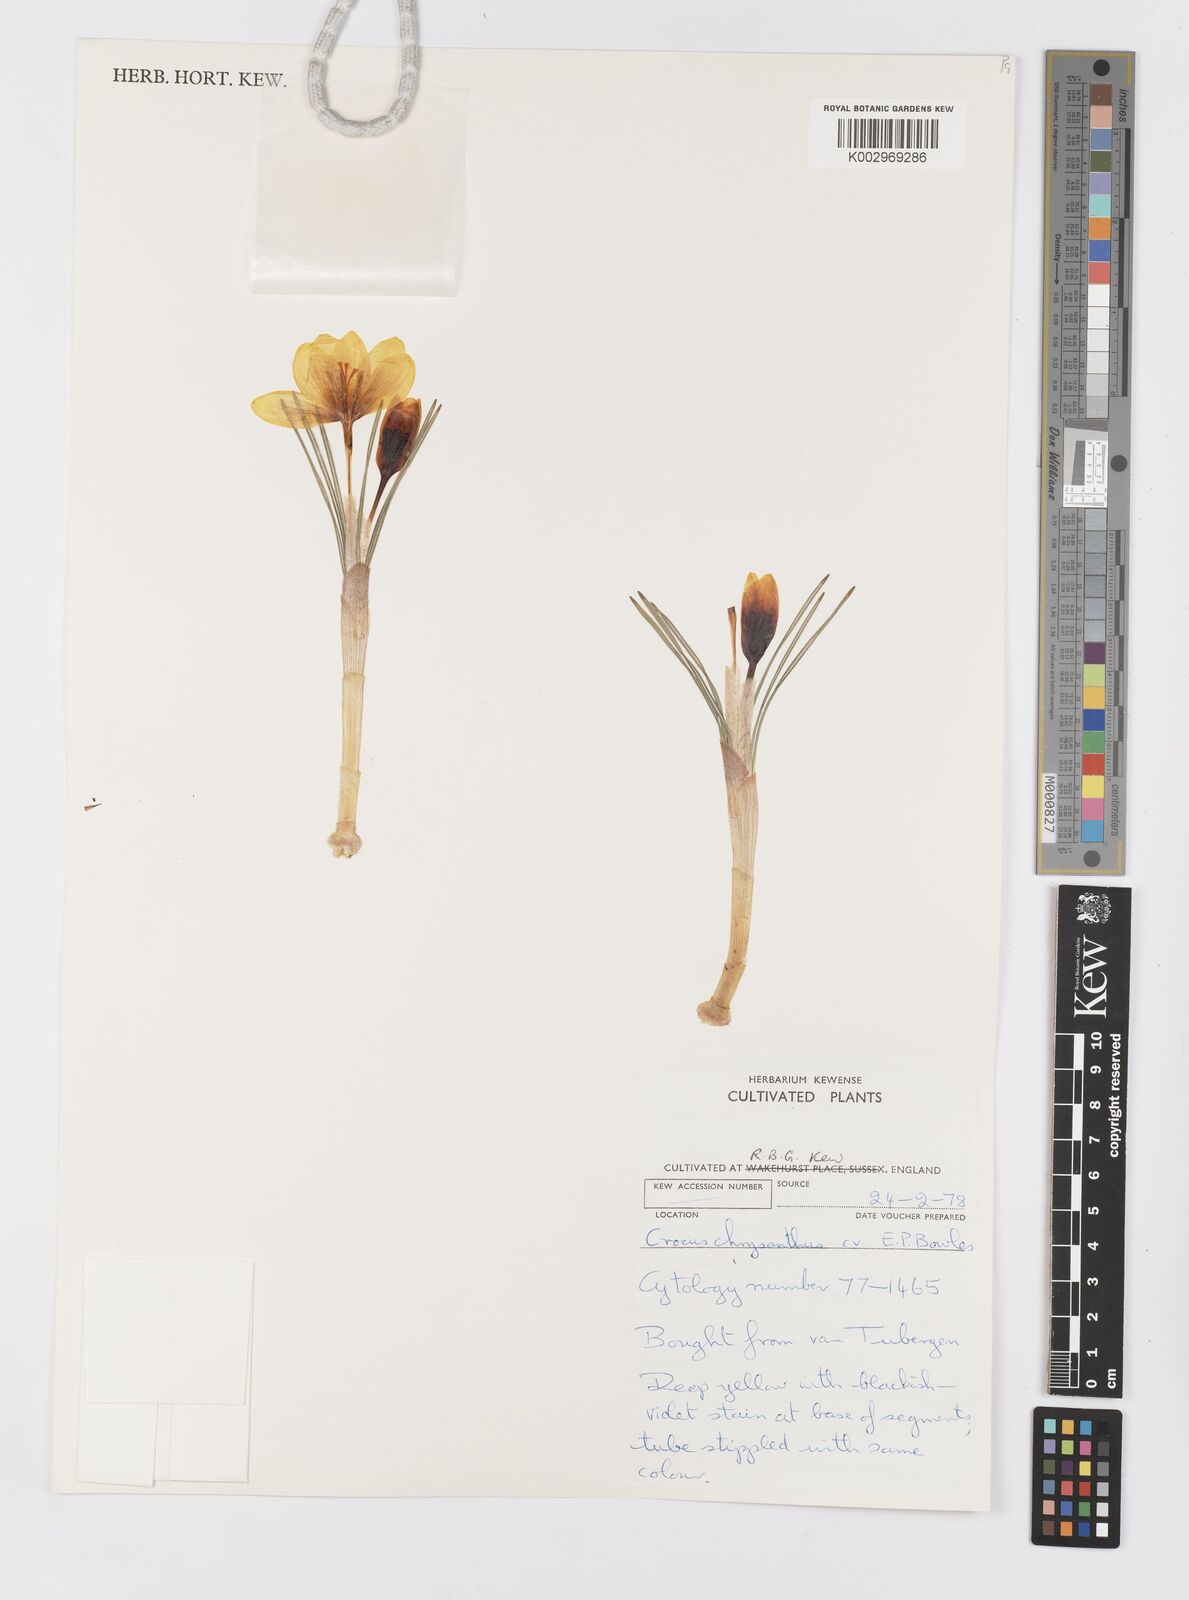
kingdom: Plantae
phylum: Tracheophyta
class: Liliopsida
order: Asparagales
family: Iridaceae
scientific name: Iridaceae
